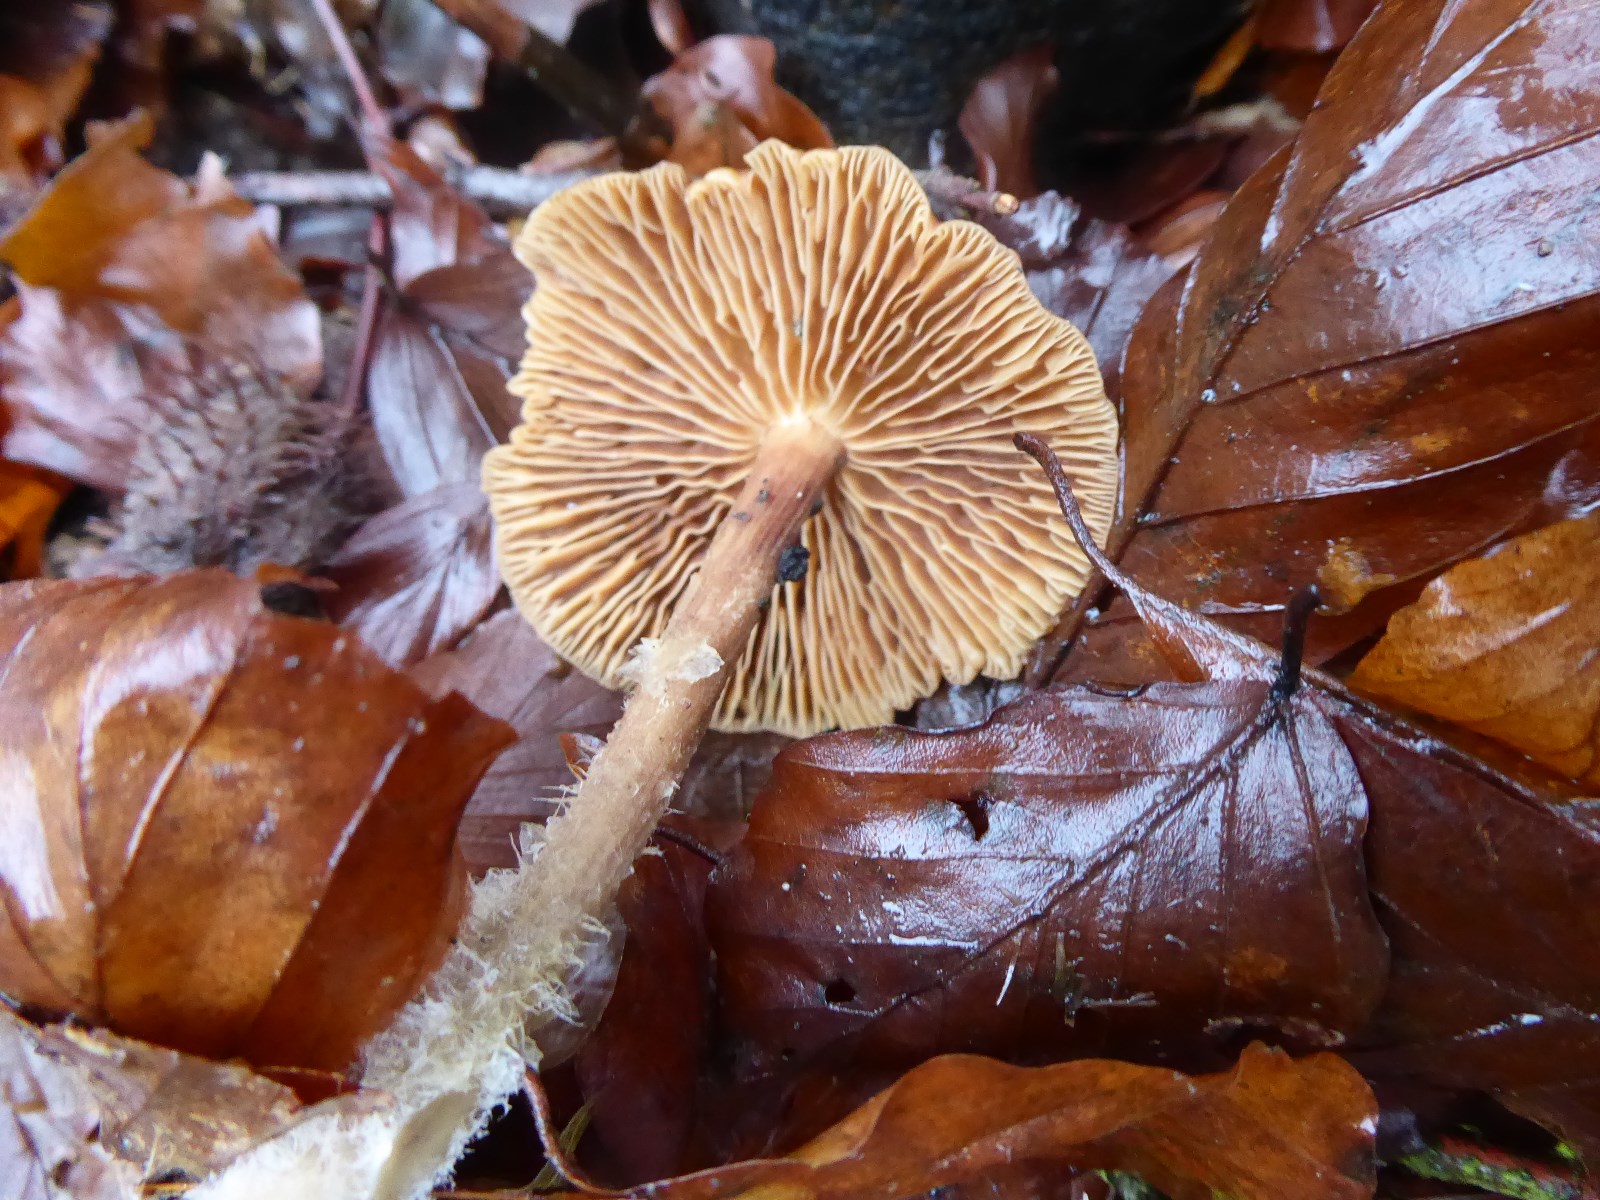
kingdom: Fungi
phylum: Basidiomycota
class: Agaricomycetes
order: Agaricales
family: Omphalotaceae
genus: Collybiopsis
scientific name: Collybiopsis peronata
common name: bestøvlet fladhat
